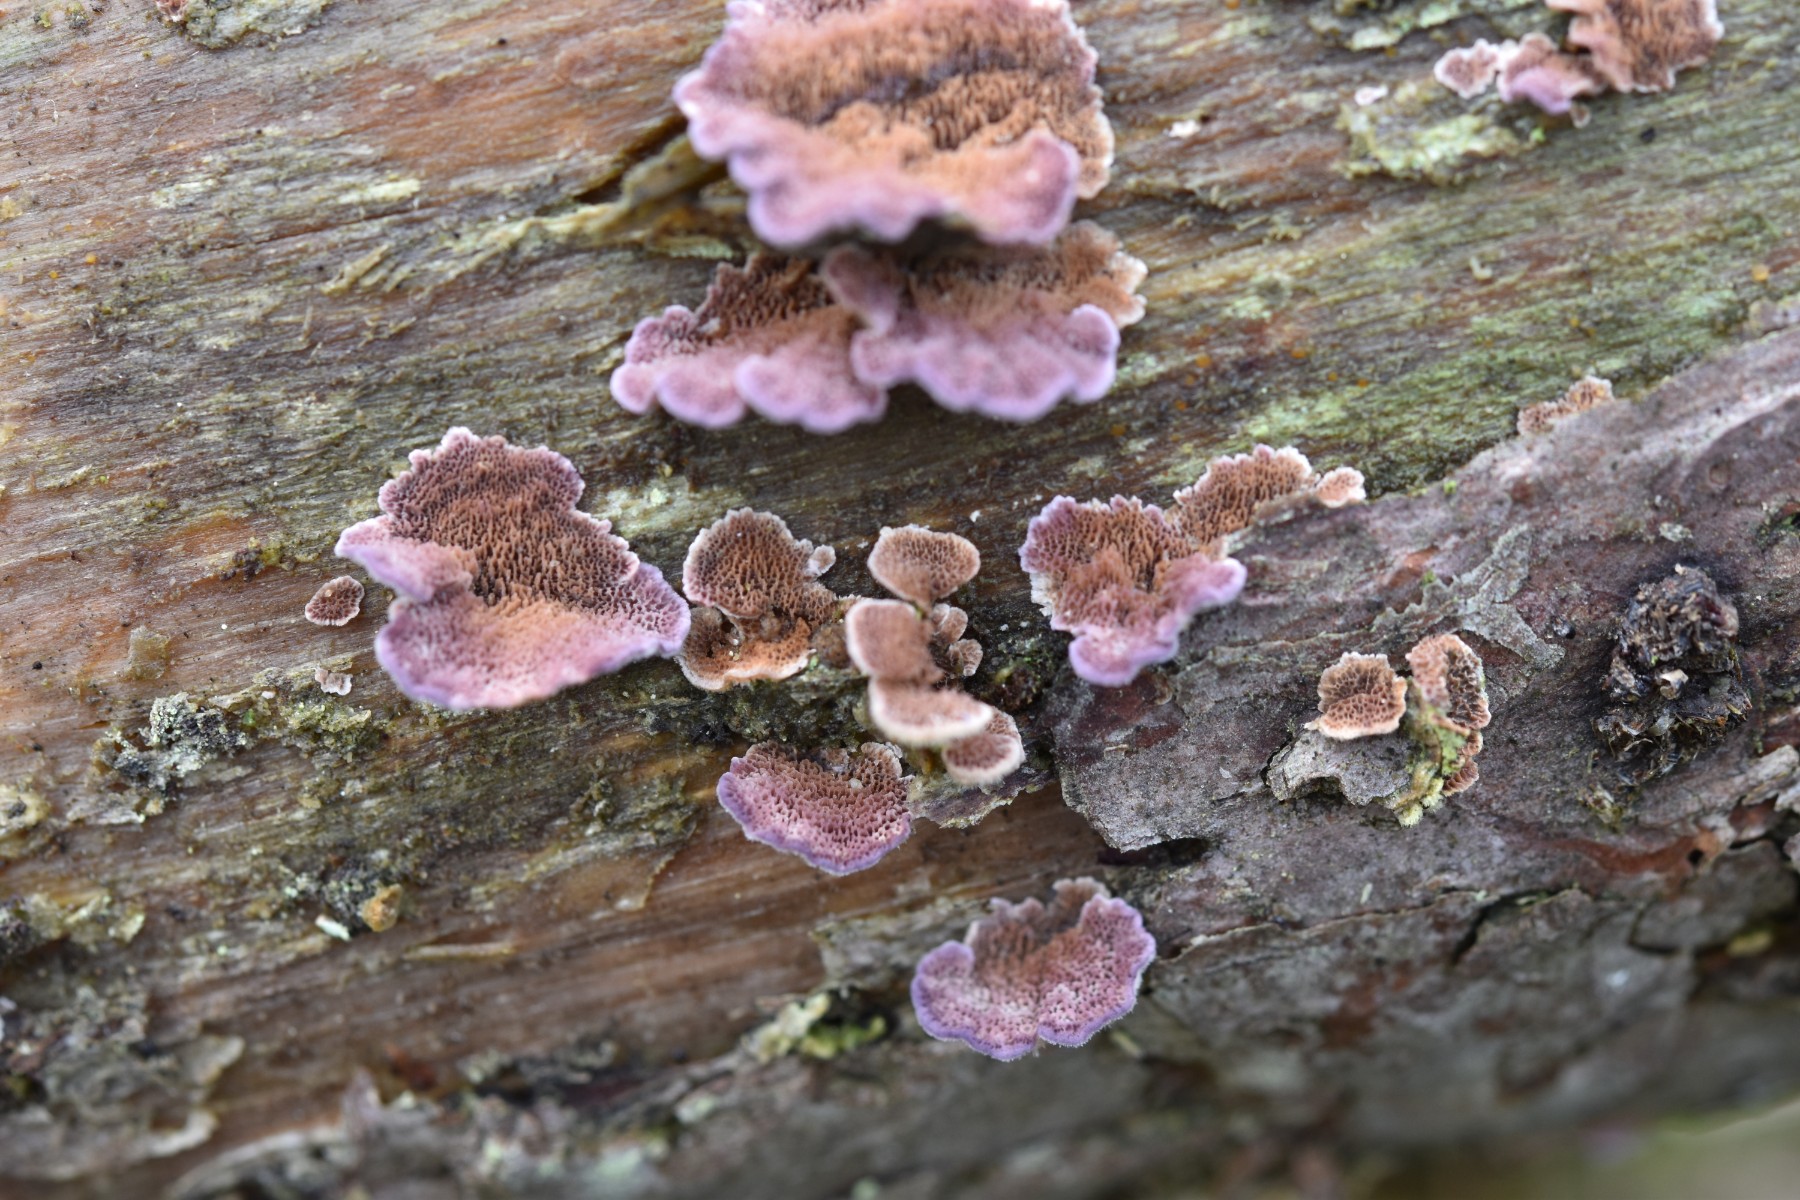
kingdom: Fungi
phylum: Basidiomycota
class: Agaricomycetes
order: Hymenochaetales
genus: Trichaptum
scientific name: Trichaptum fuscoviolaceum
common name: tandet violporesvamp
